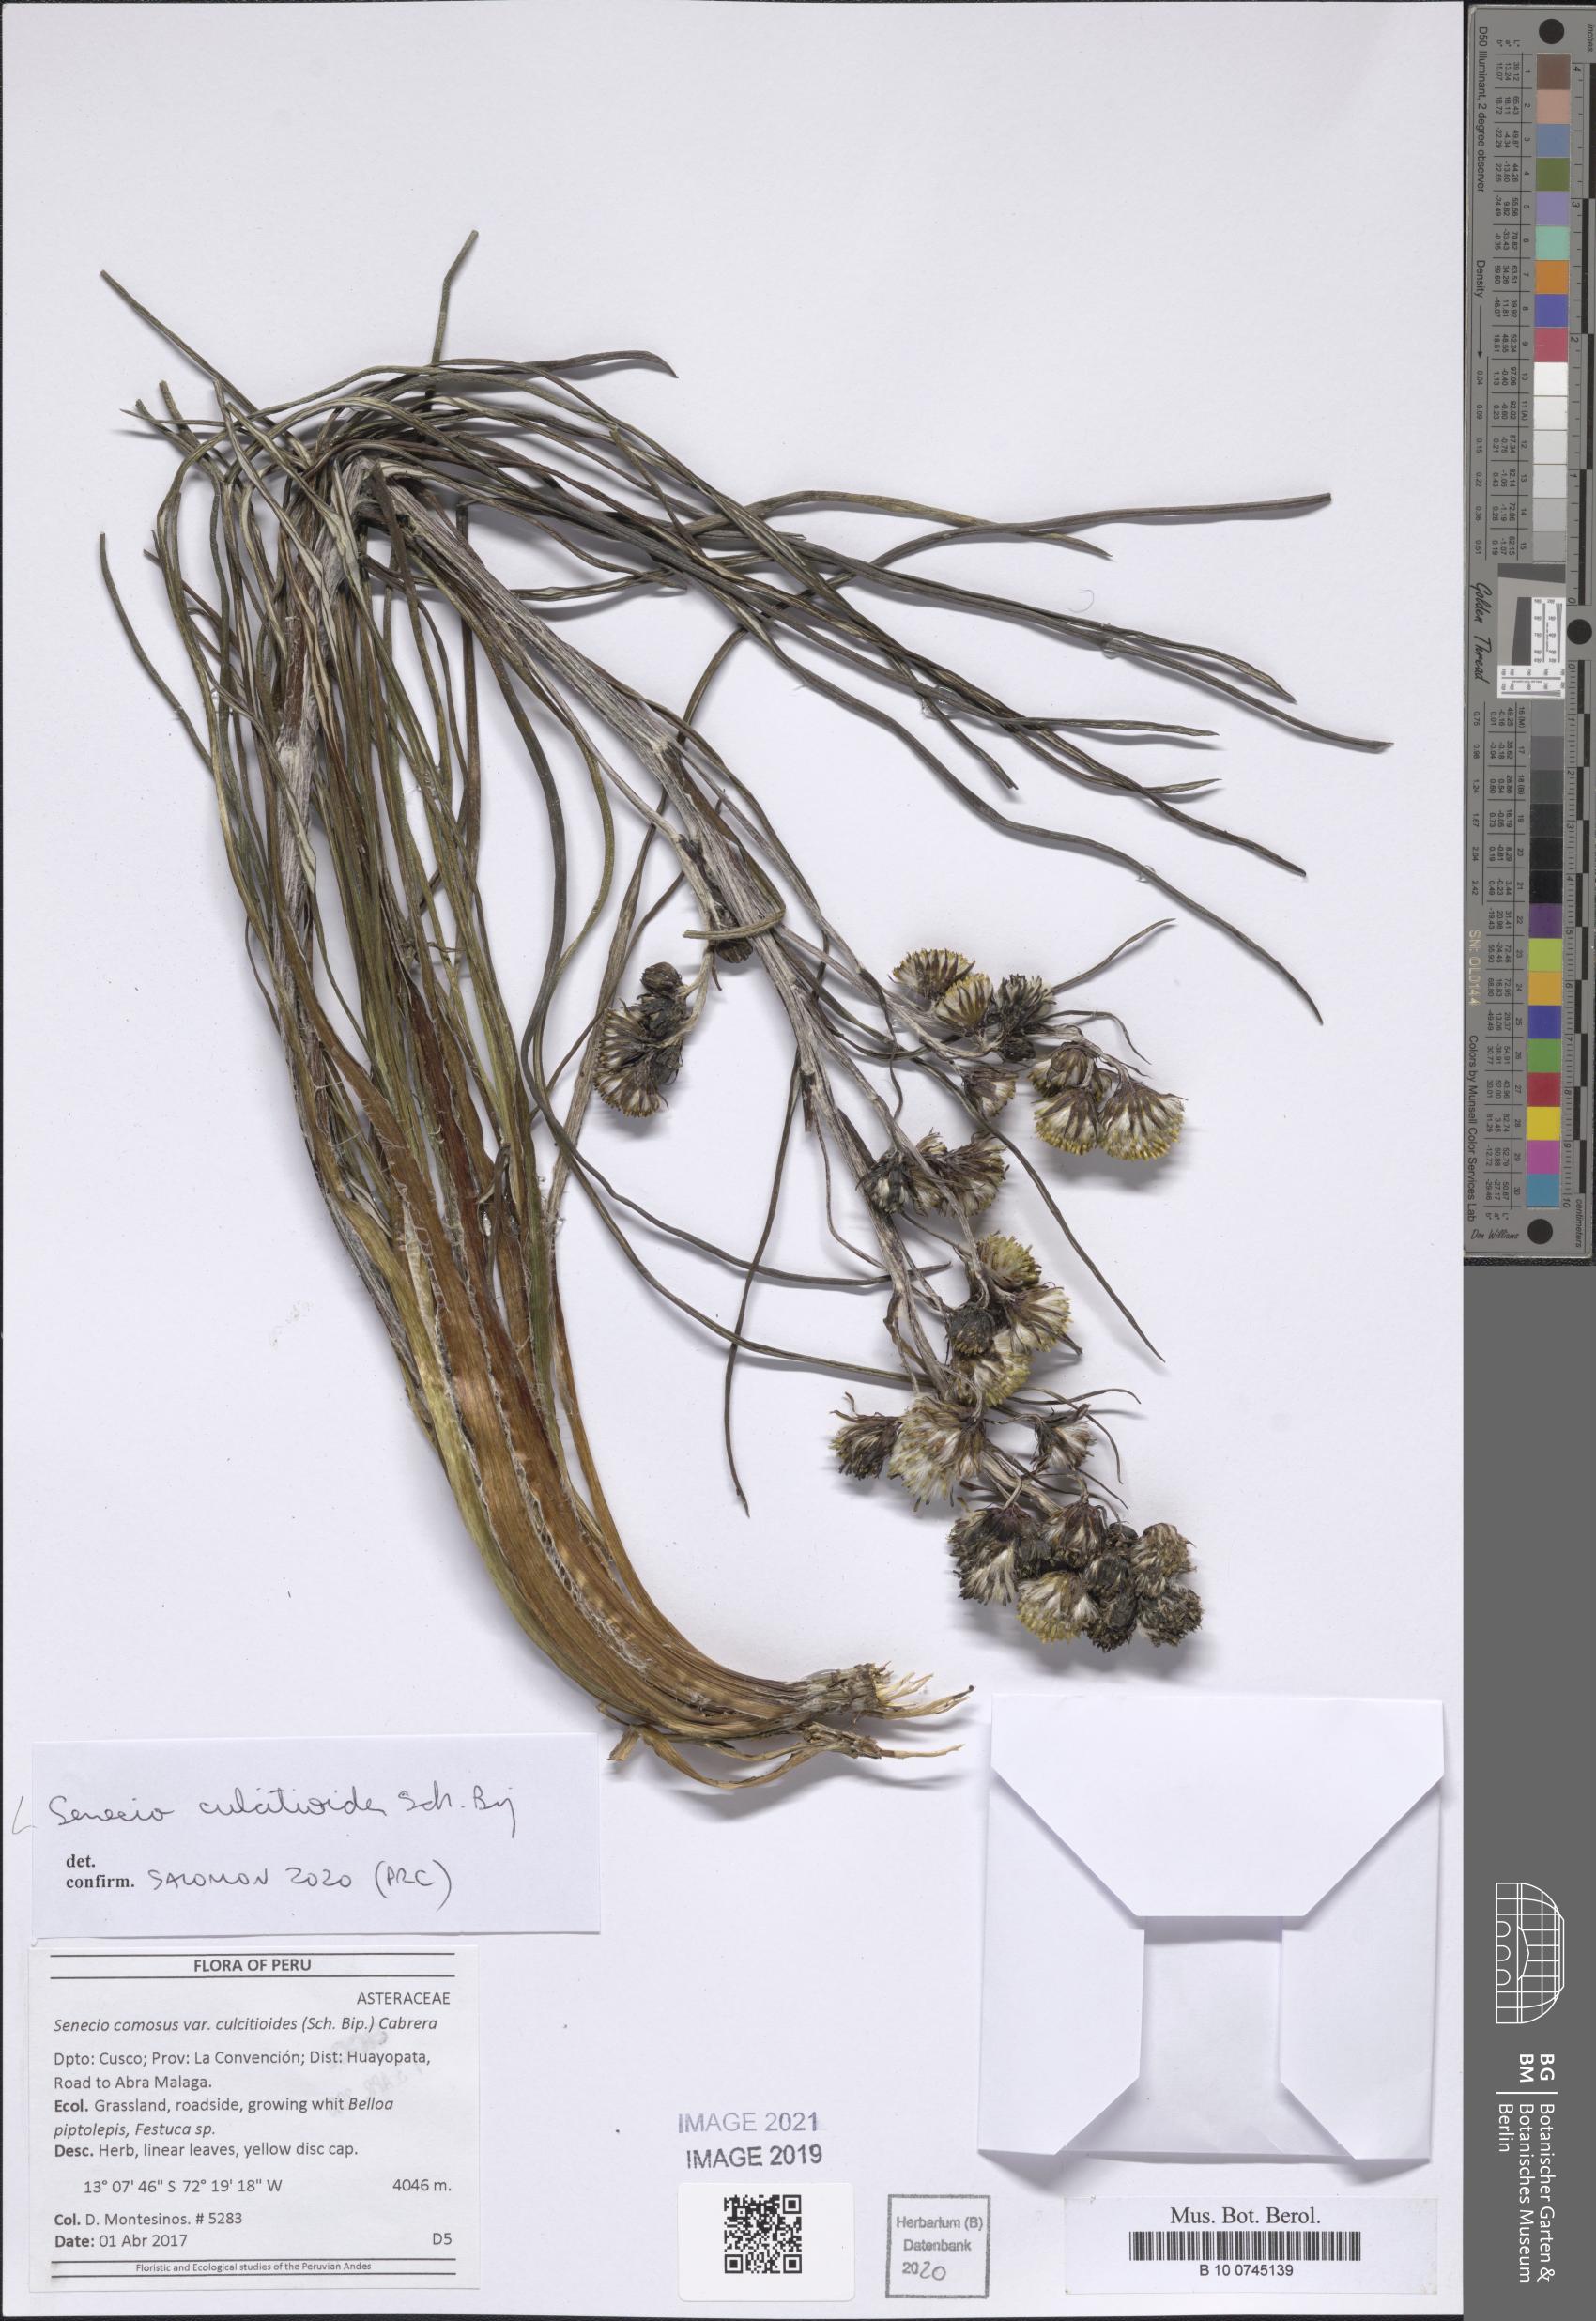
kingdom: Plantae
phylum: Tracheophyta
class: Magnoliopsida
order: Asterales
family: Asteraceae
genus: Senecio
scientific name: Senecio comosus
